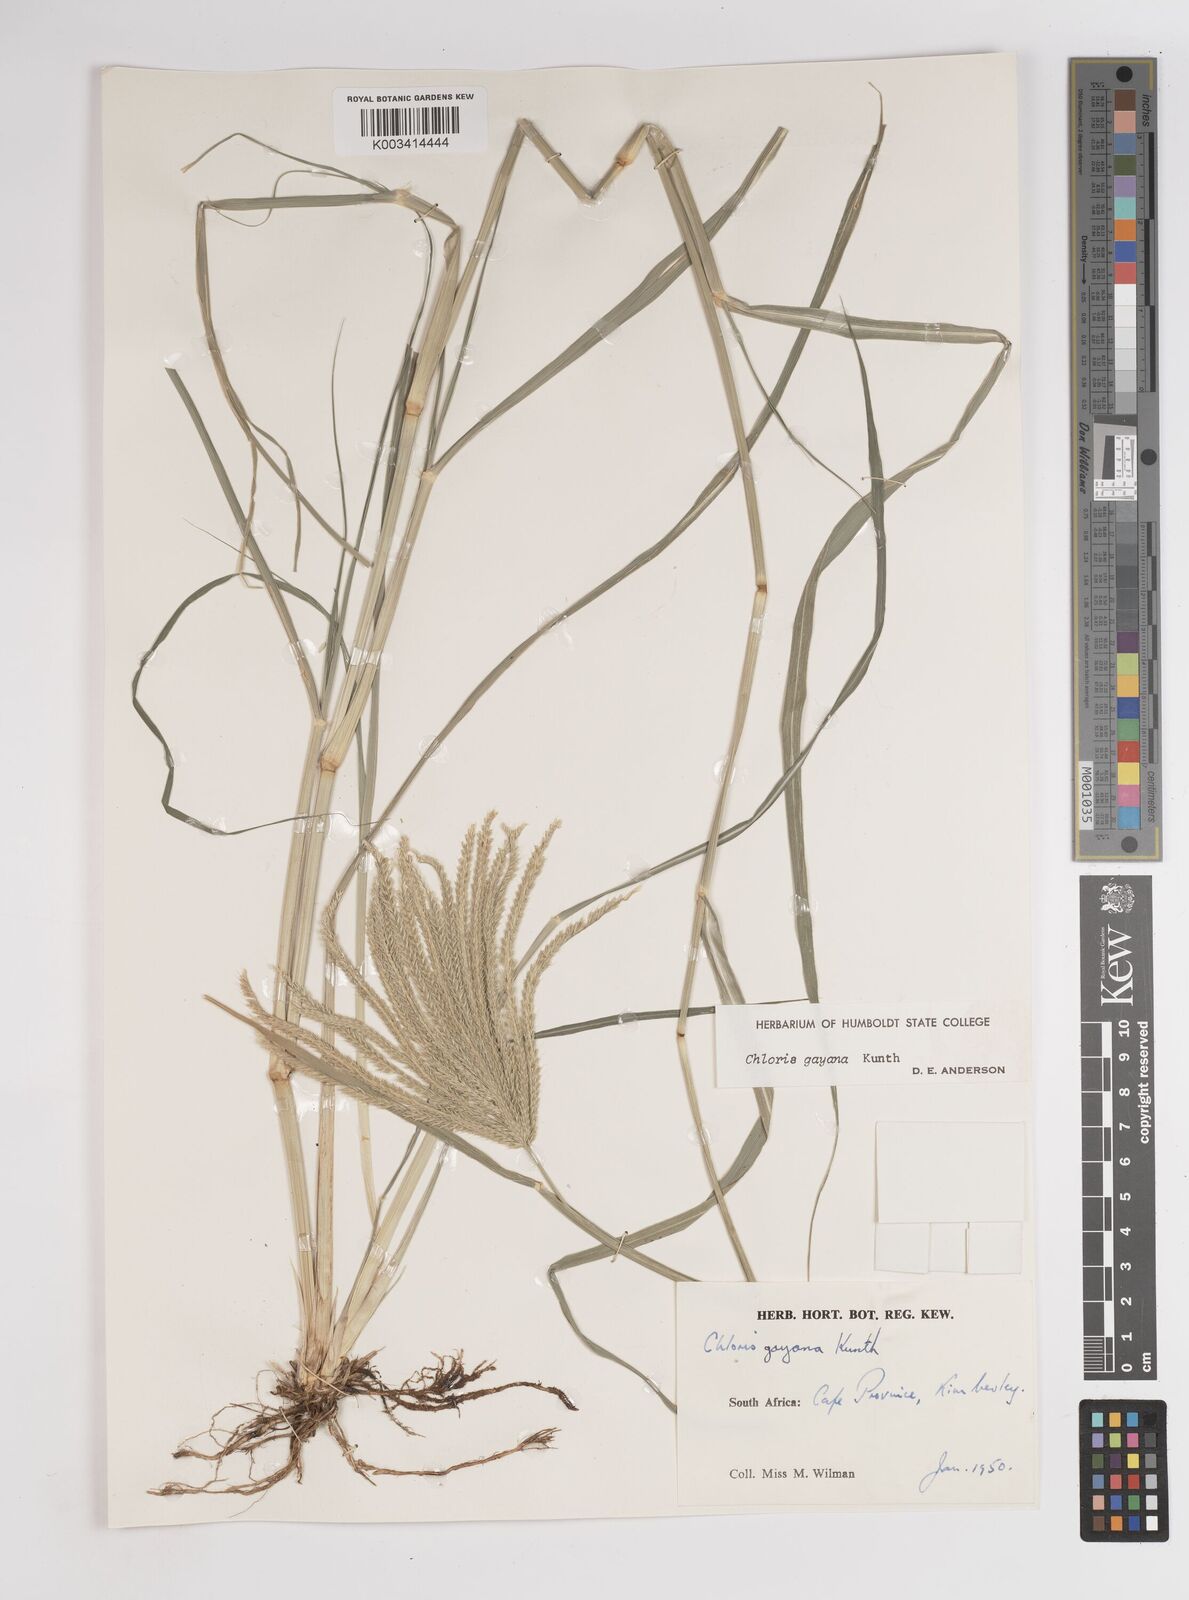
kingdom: Plantae
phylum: Tracheophyta
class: Liliopsida
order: Poales
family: Poaceae
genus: Chloris
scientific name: Chloris gayana
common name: Rhodes grass
